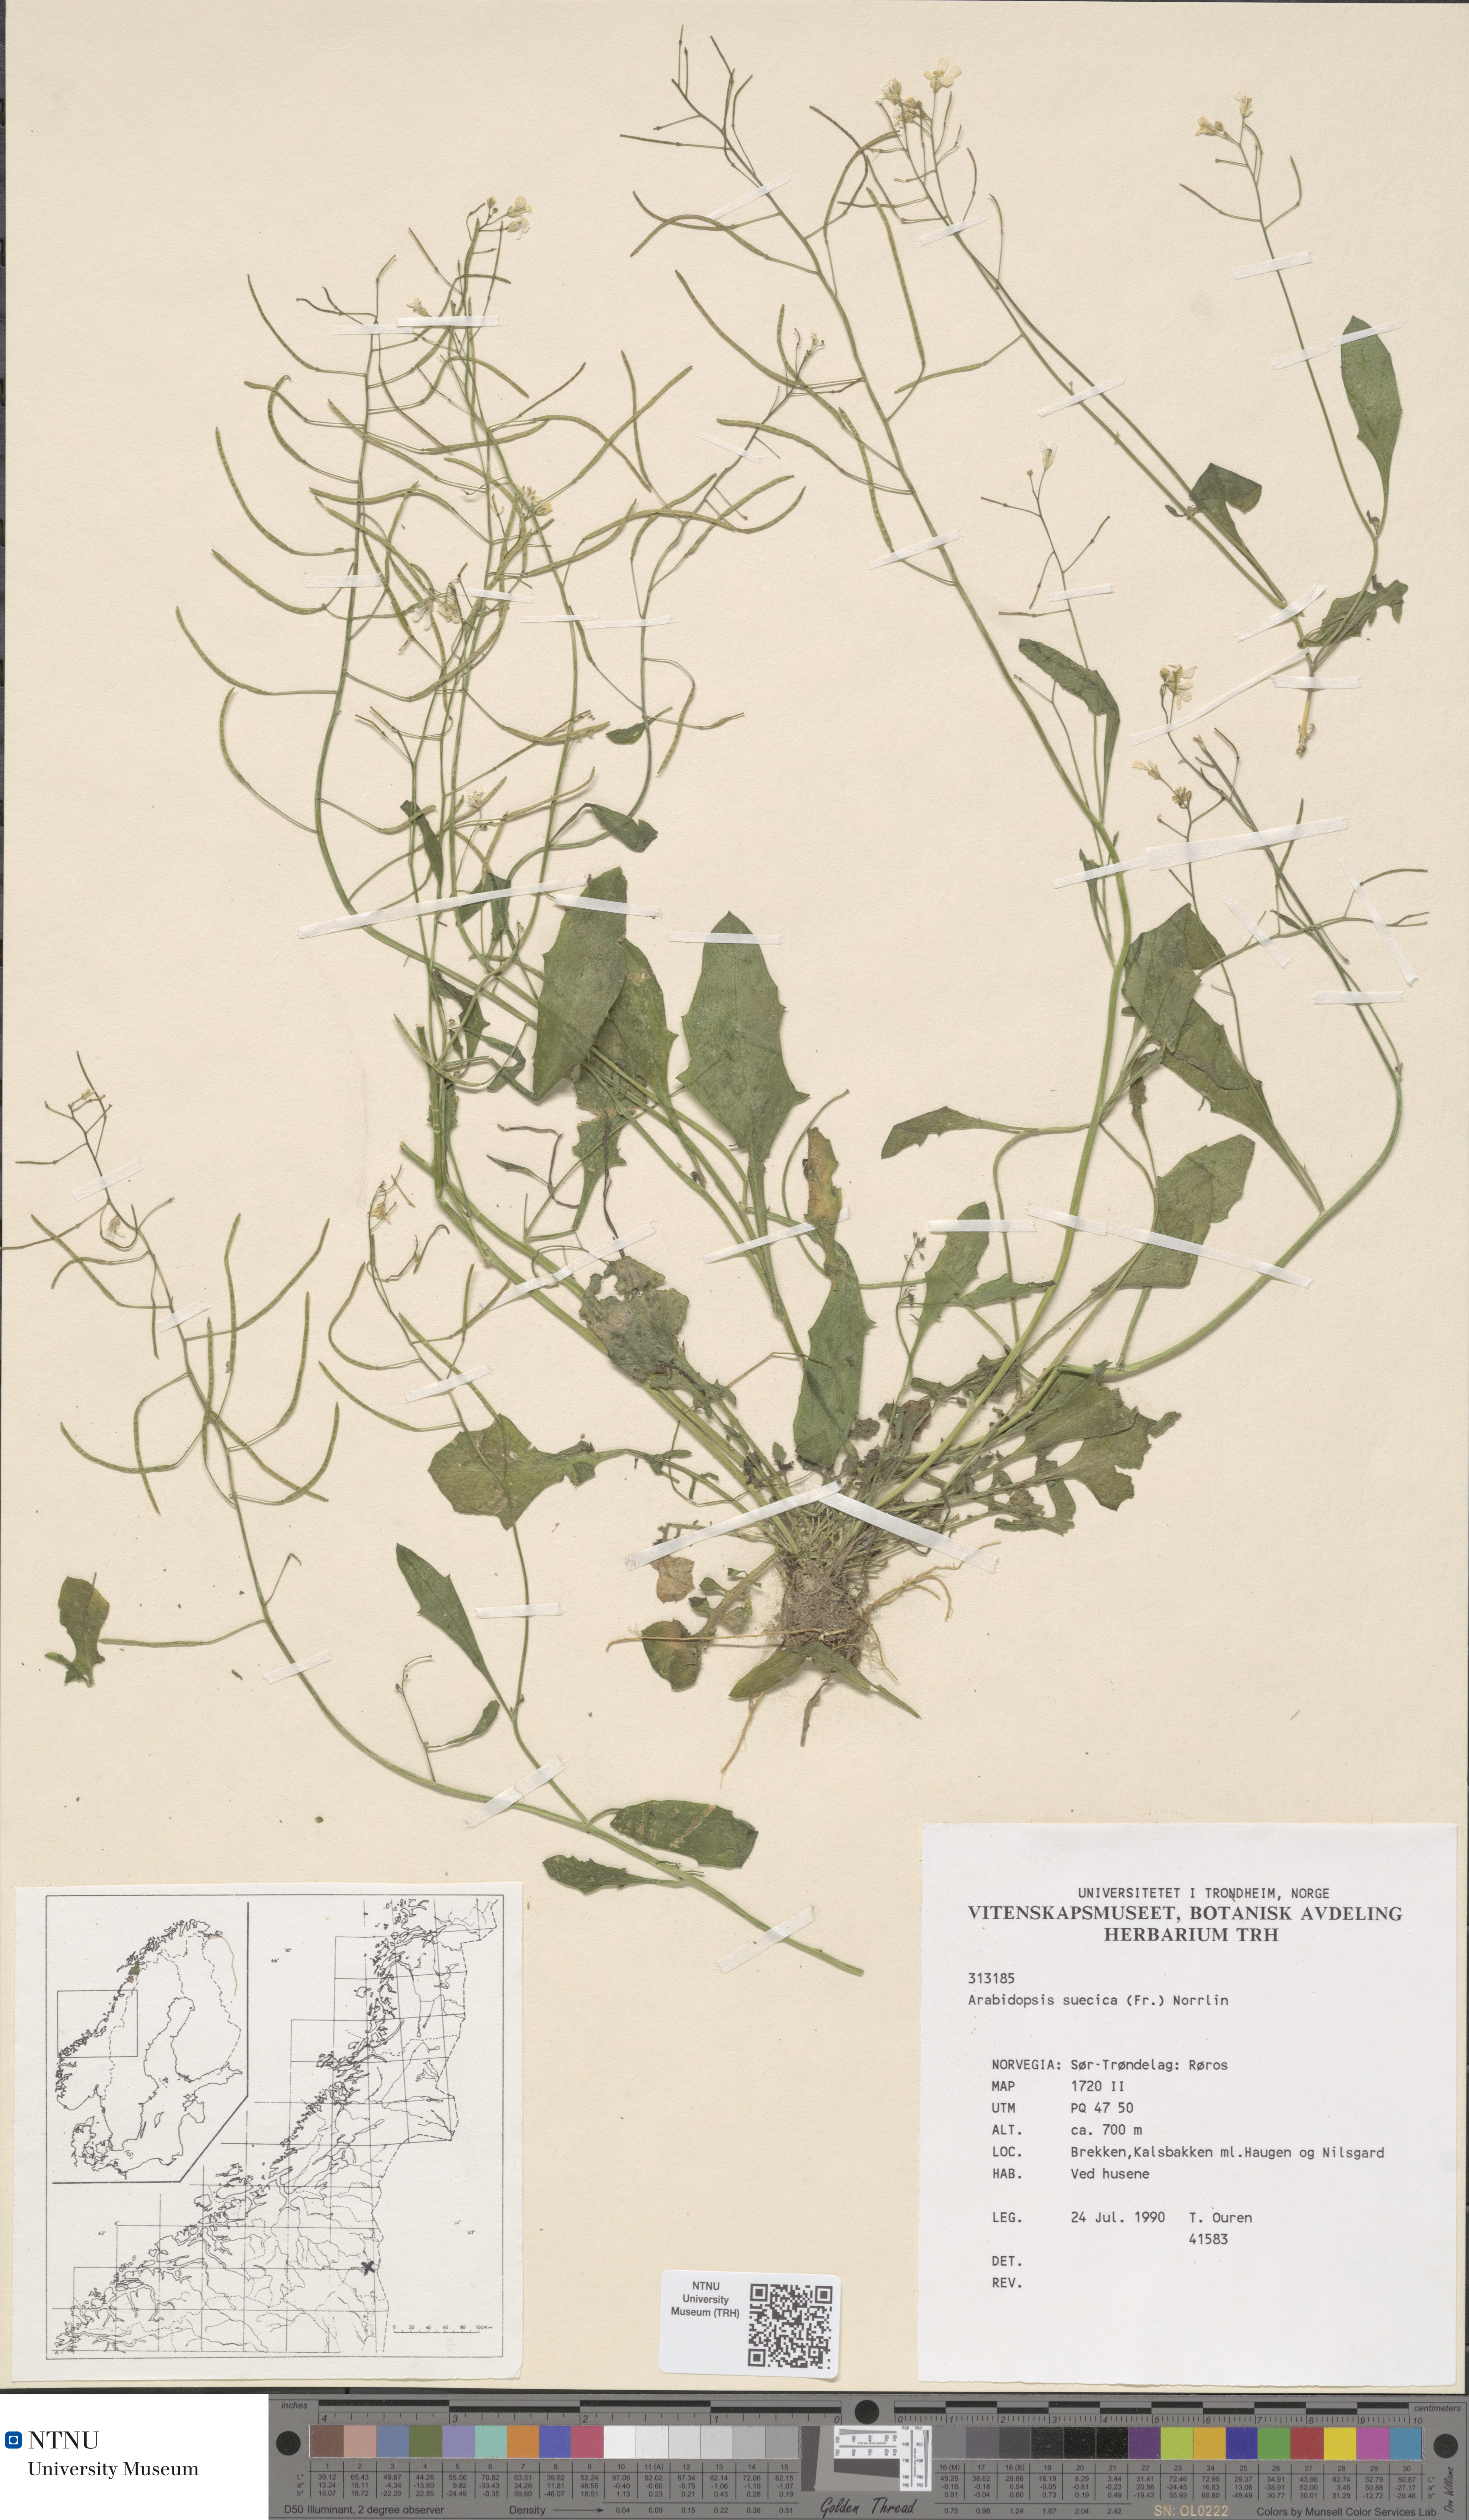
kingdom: Plantae
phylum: Tracheophyta
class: Magnoliopsida
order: Brassicales
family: Brassicaceae
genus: Arabidopsis
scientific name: Arabidopsis suecica
